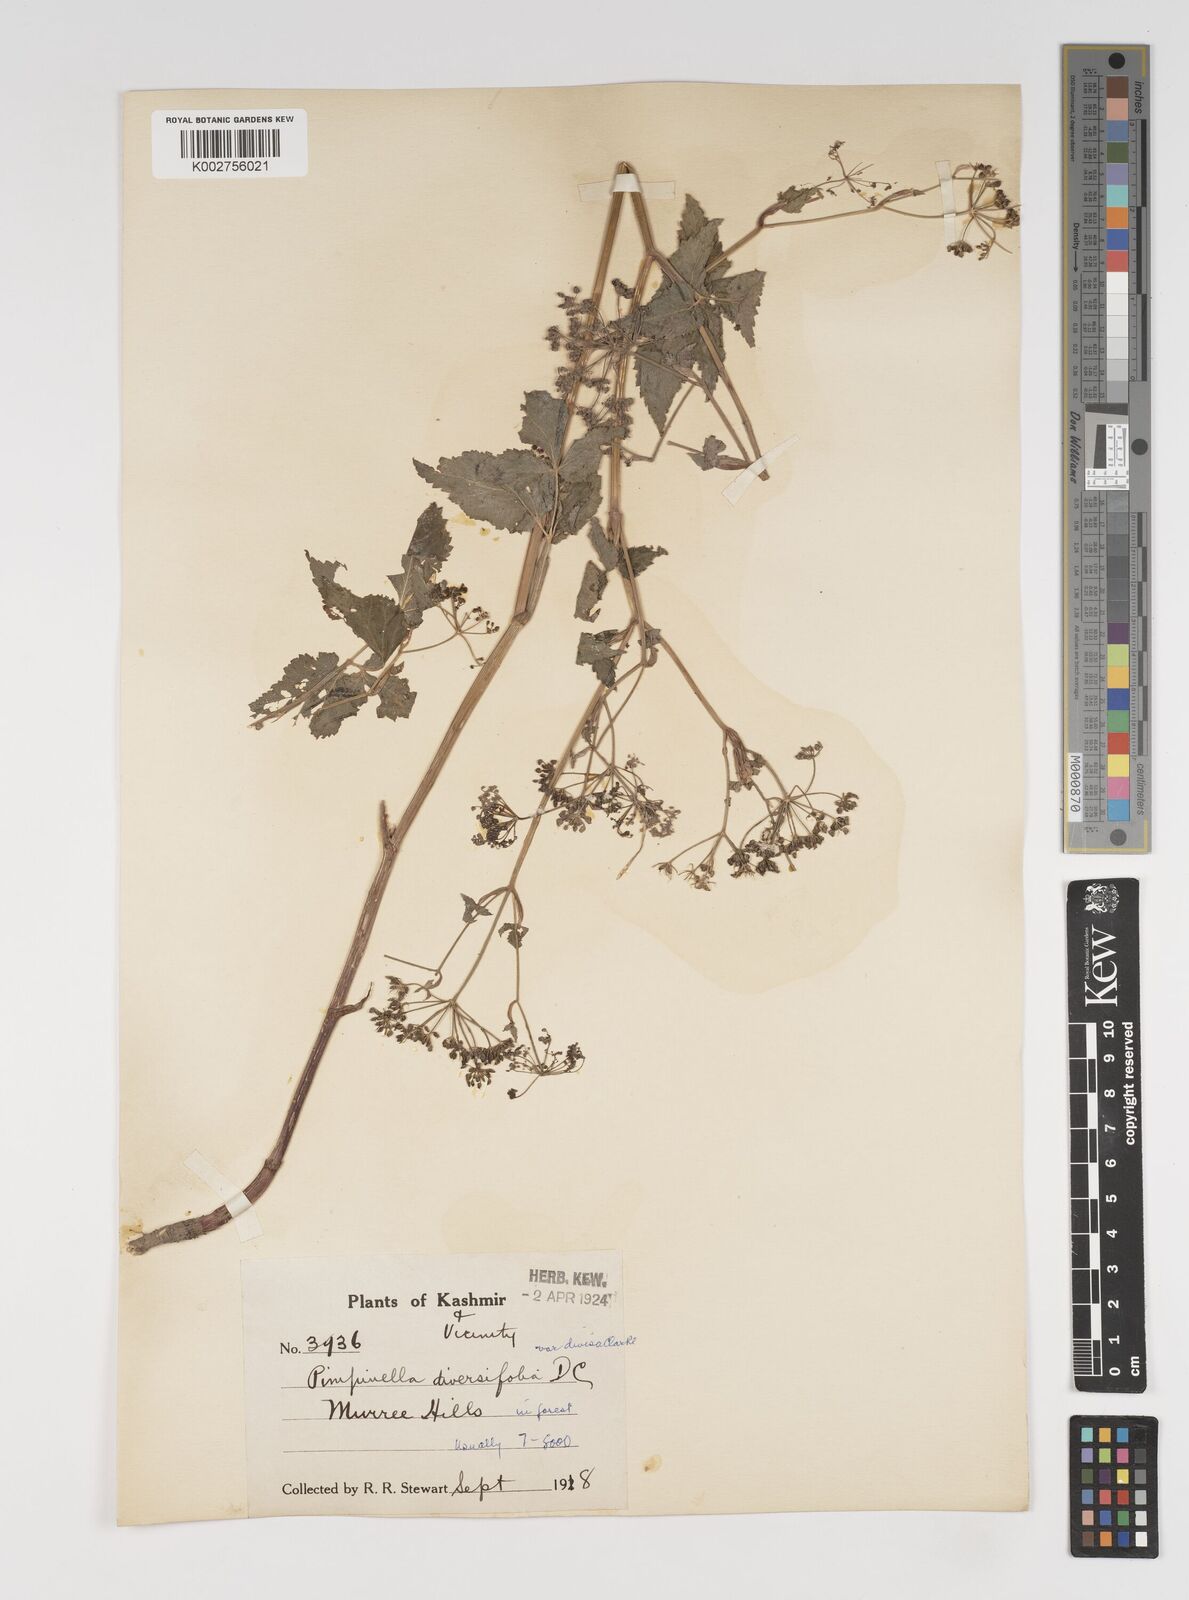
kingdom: Plantae
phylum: Tracheophyta
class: Magnoliopsida
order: Apiales
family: Apiaceae
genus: Pimpinella
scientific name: Pimpinella diversifolia
